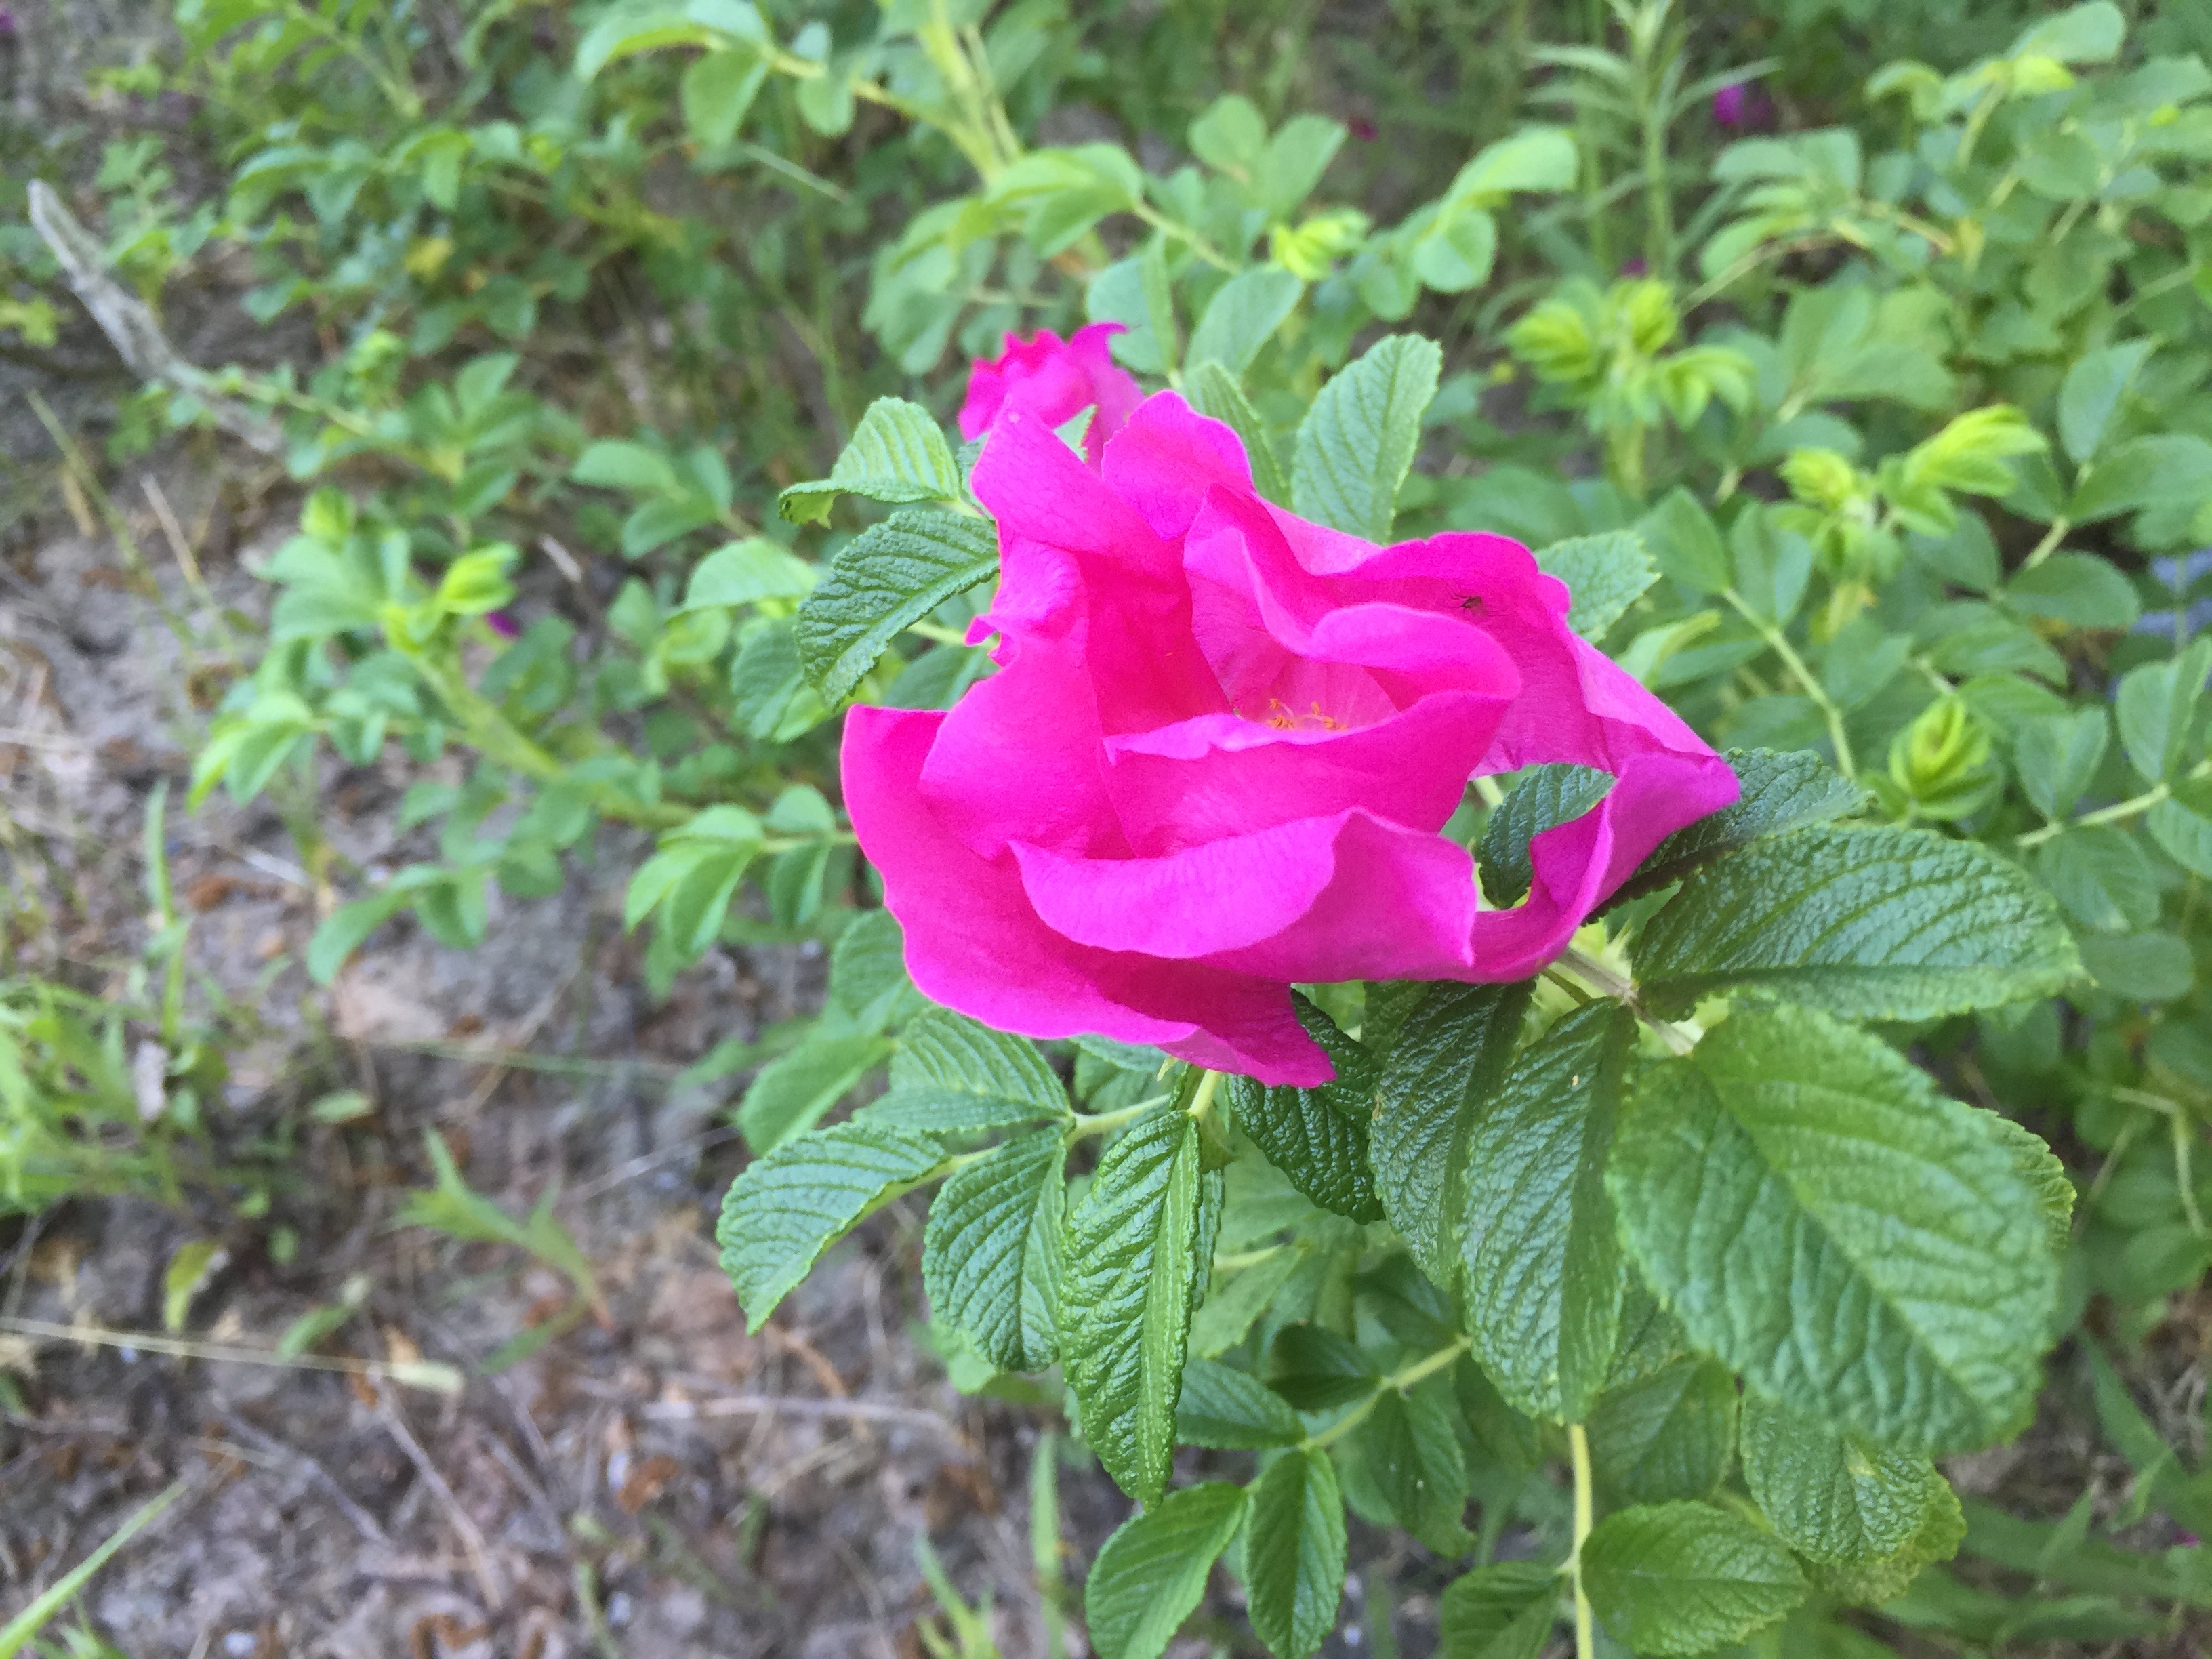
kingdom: Plantae
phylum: Tracheophyta
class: Magnoliopsida
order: Rosales
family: Rosaceae
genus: Rosa
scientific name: Rosa rugosa
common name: Japanese rose
